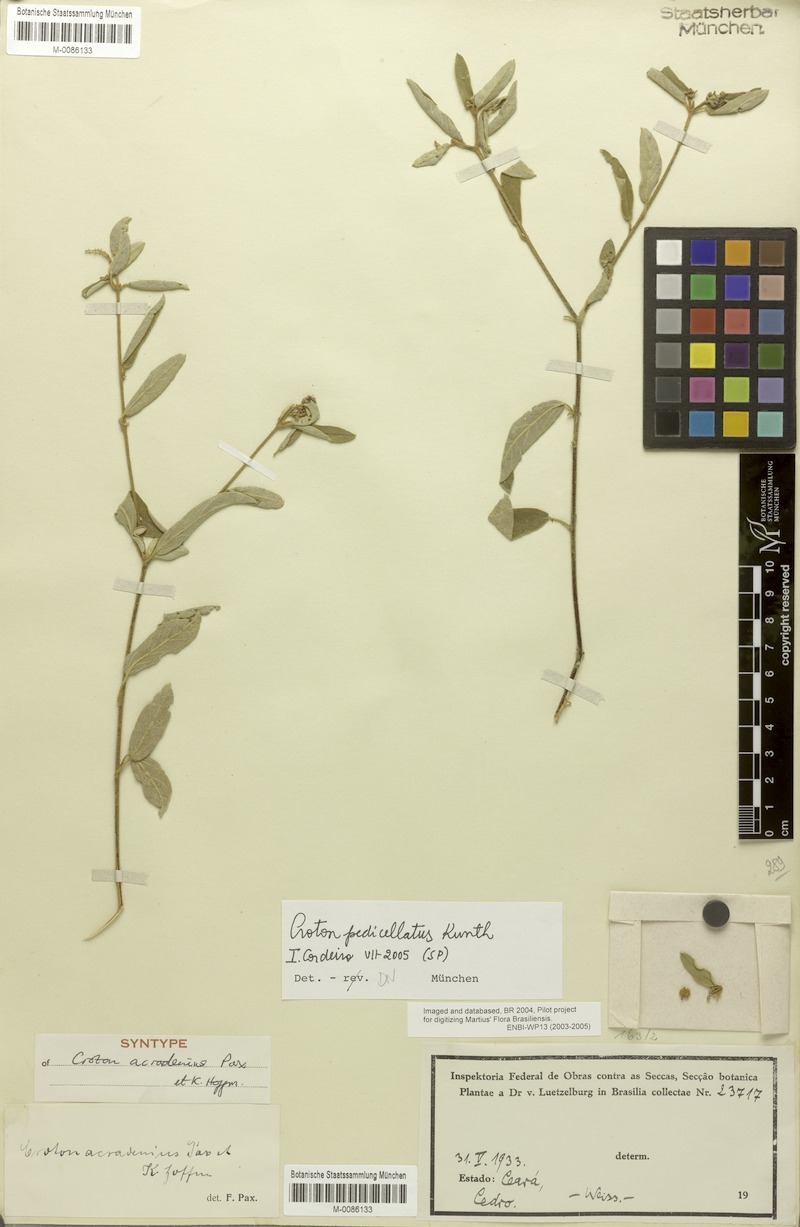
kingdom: Plantae
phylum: Tracheophyta
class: Magnoliopsida
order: Malpighiales
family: Euphorbiaceae
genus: Croton
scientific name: Croton pedicellatus
